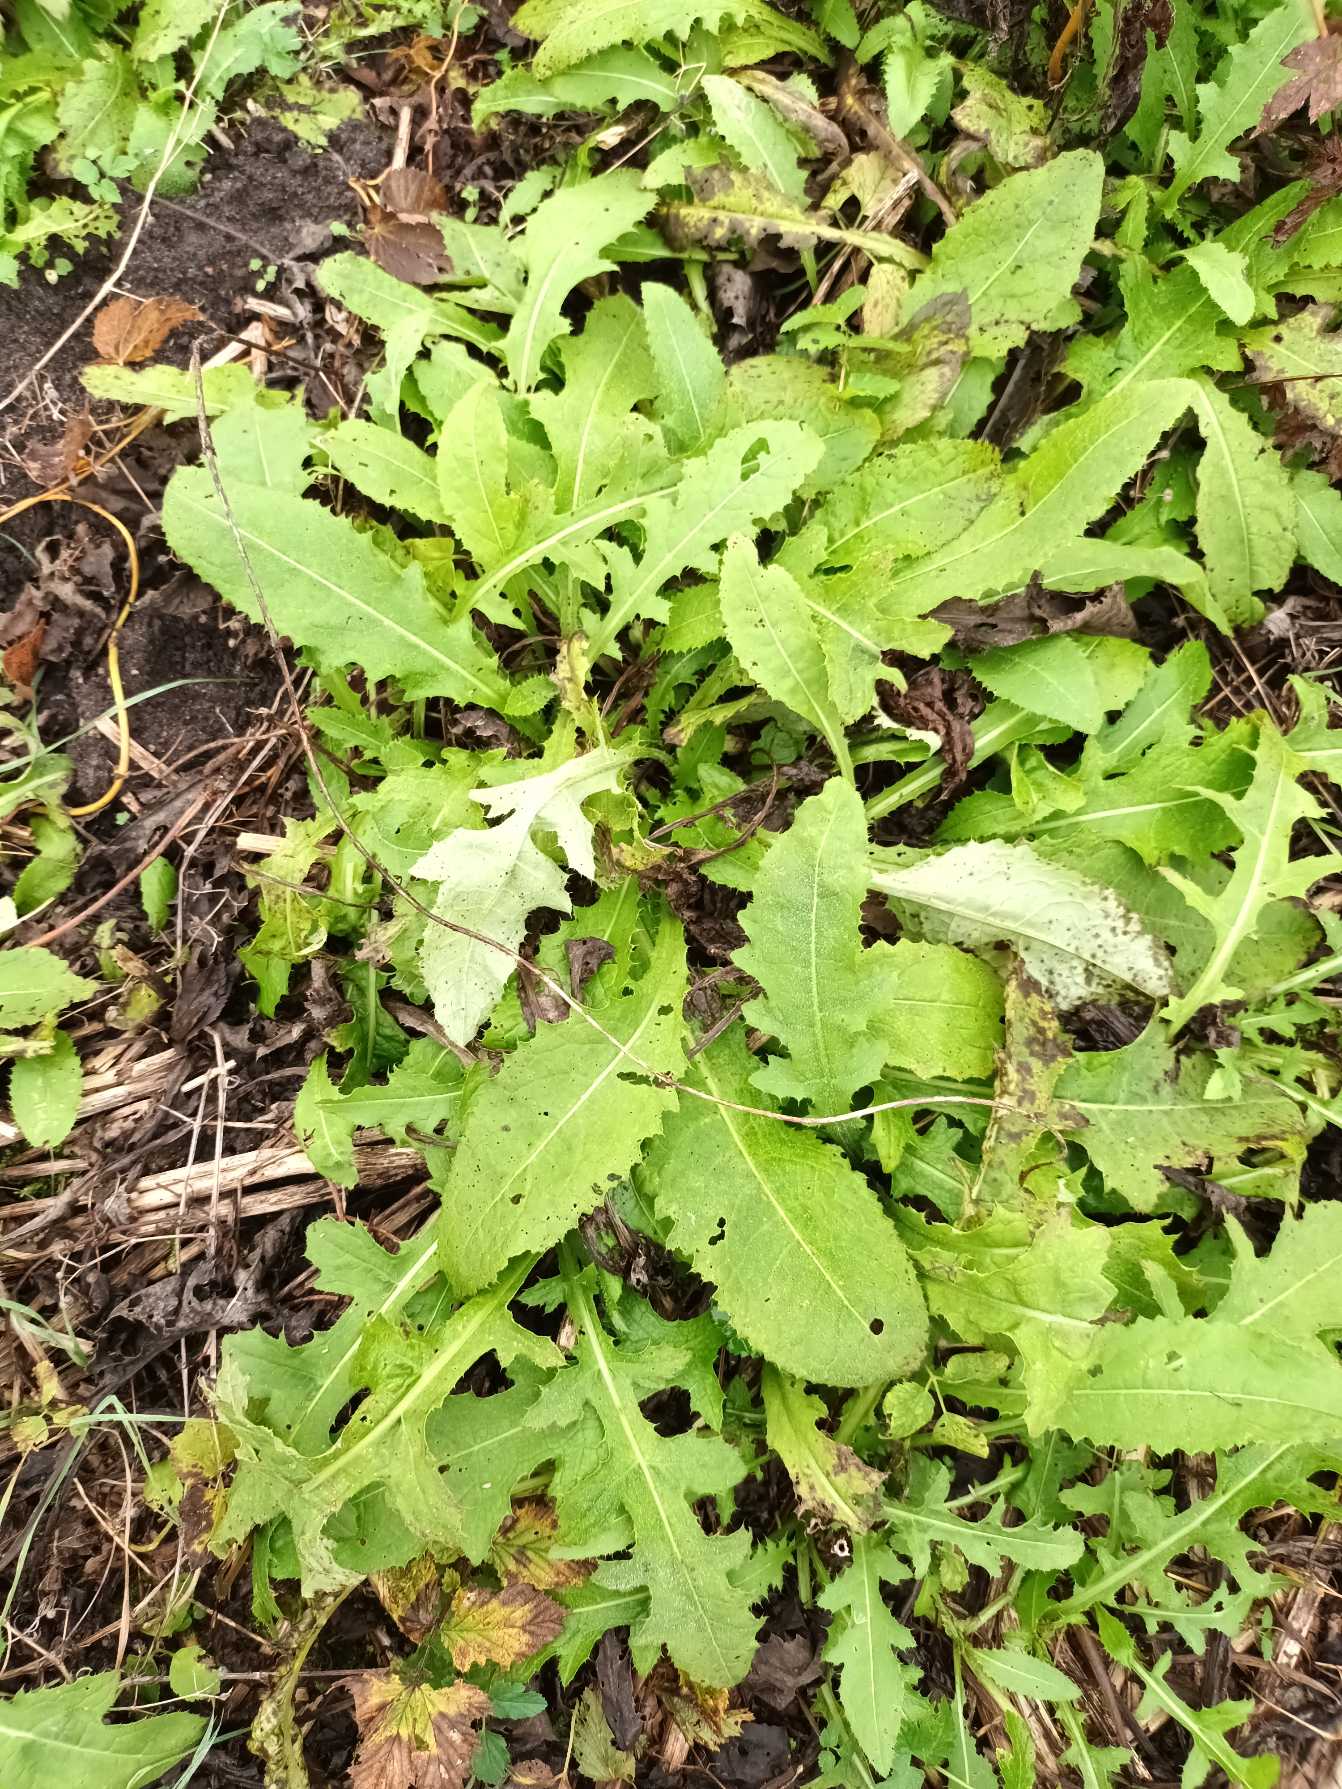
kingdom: Plantae
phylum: Tracheophyta
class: Magnoliopsida
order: Asterales
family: Asteraceae
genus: Cirsium
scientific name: Cirsium oleraceum
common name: Kål-tidsel
